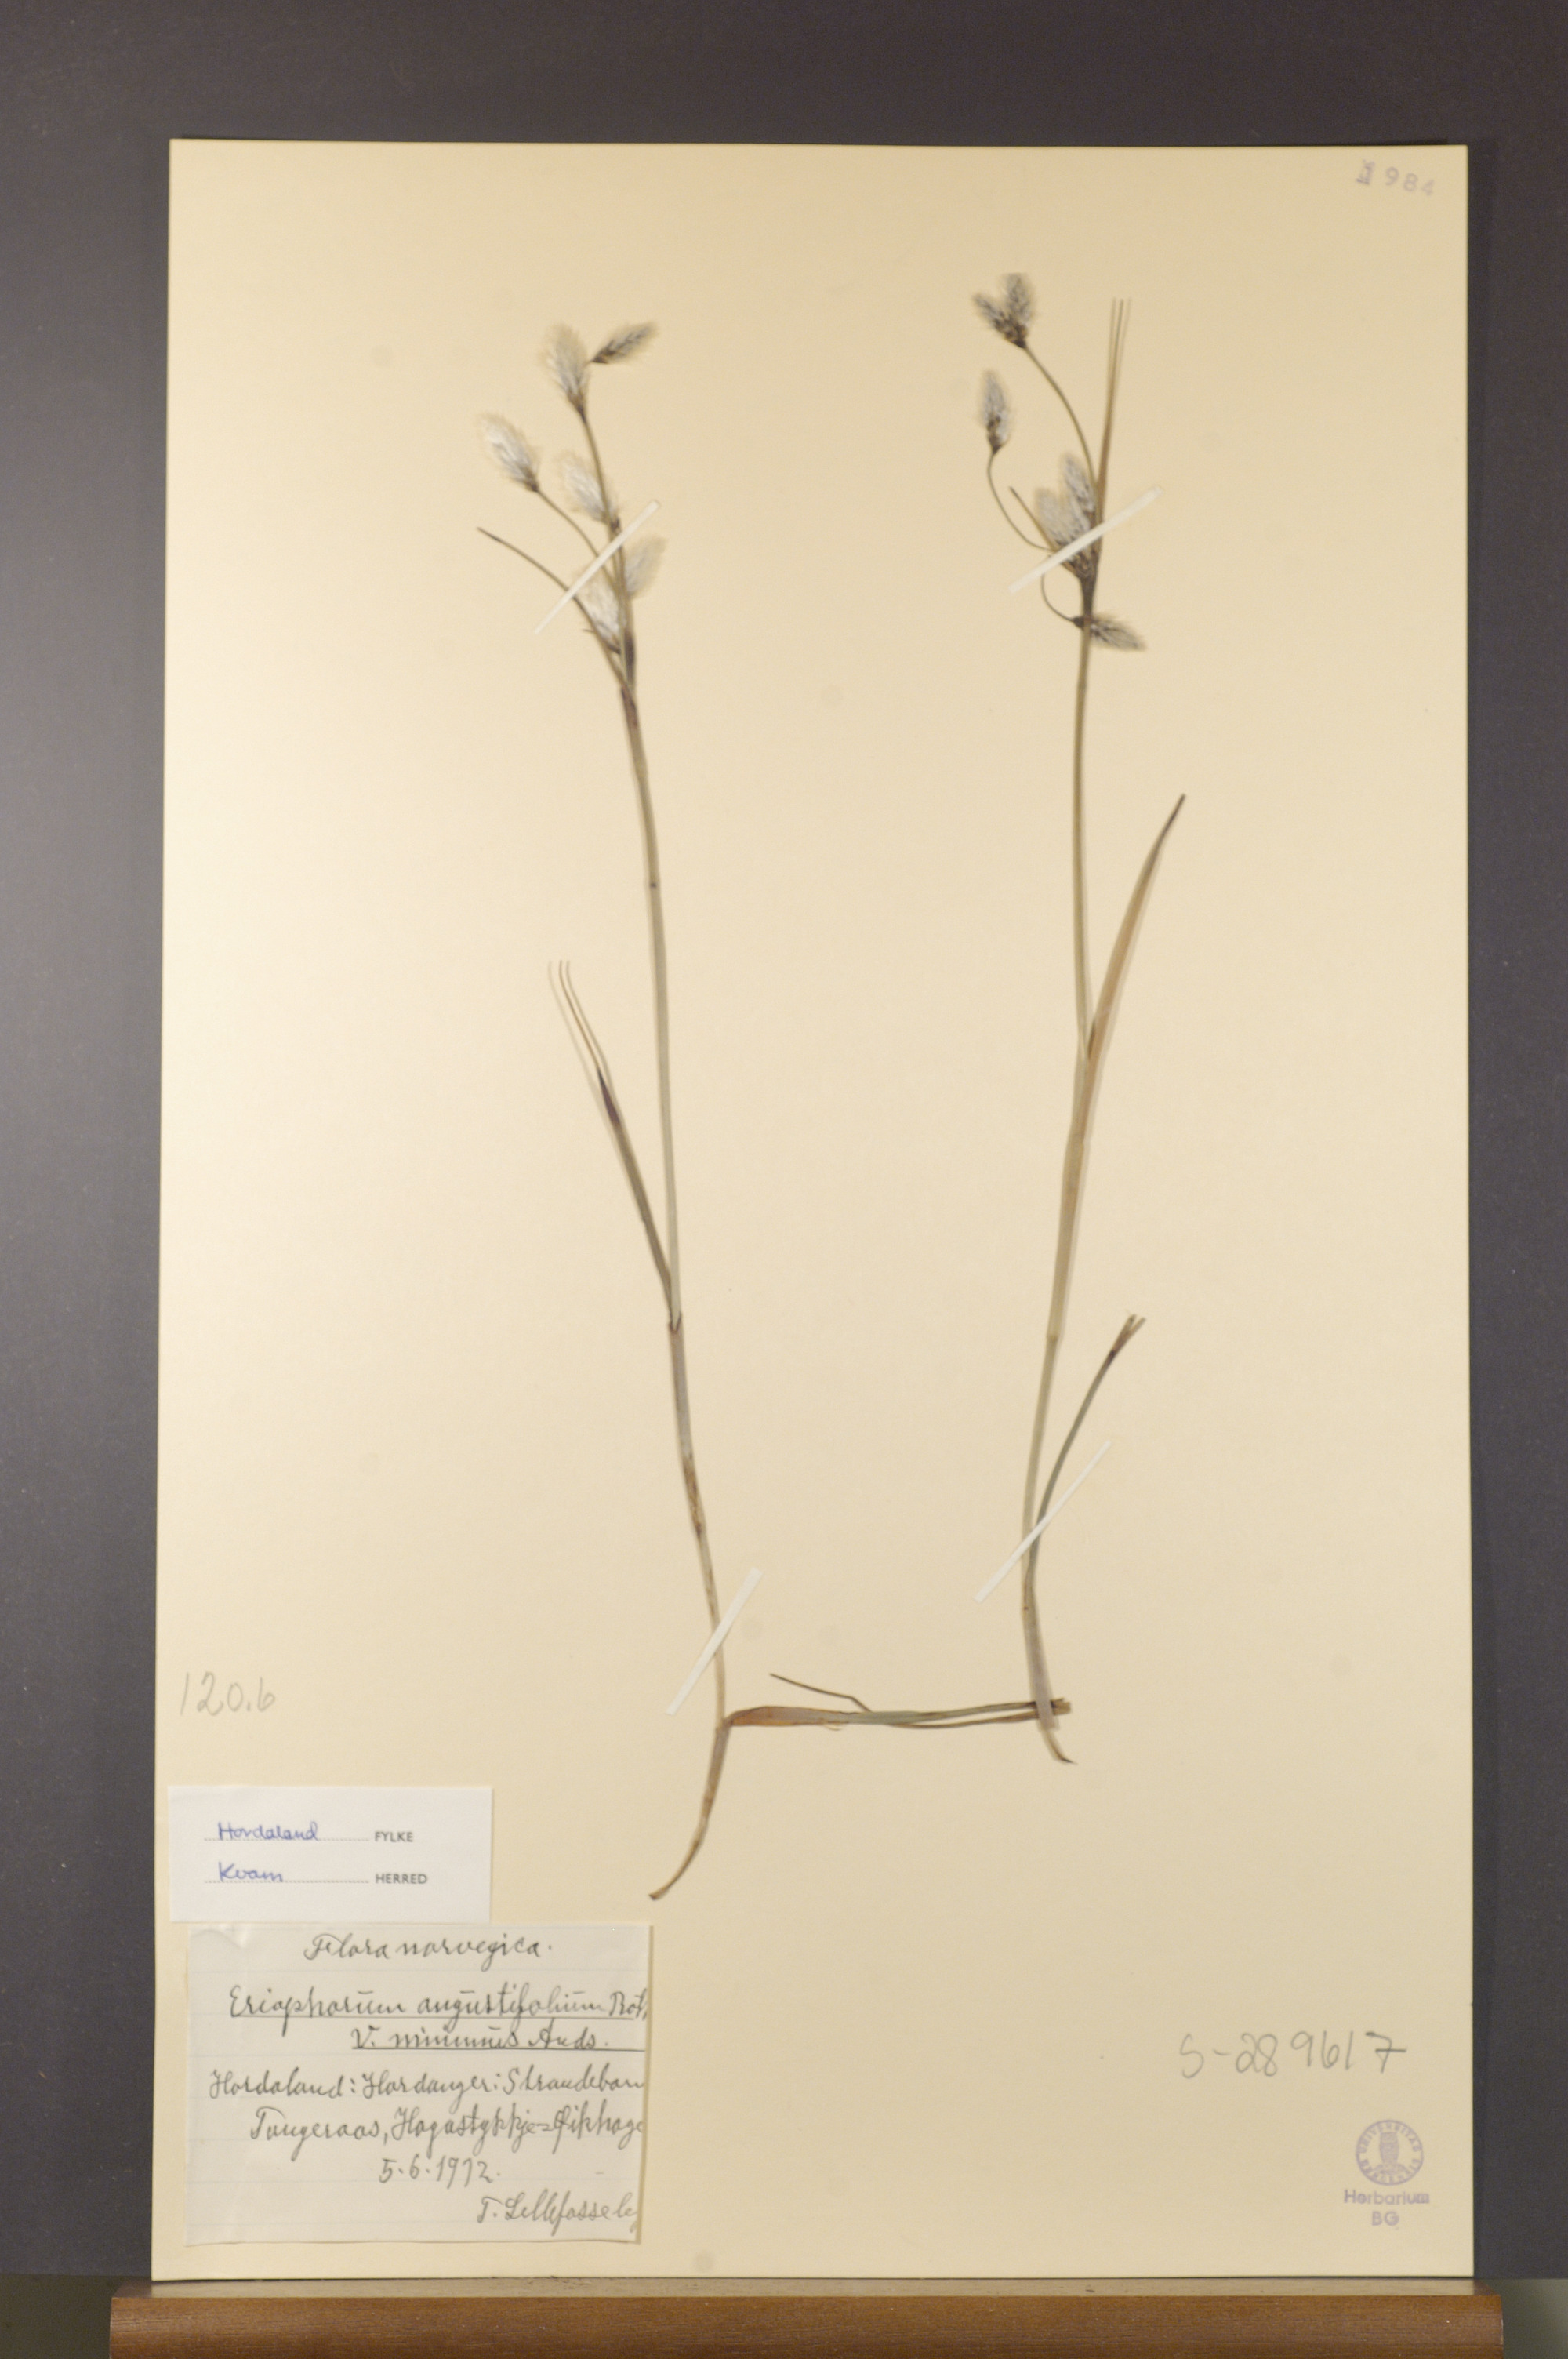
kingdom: Plantae
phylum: Tracheophyta
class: Liliopsida
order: Poales
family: Cyperaceae
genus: Eriophorum
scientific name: Eriophorum angustifolium
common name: Common cottongrass
